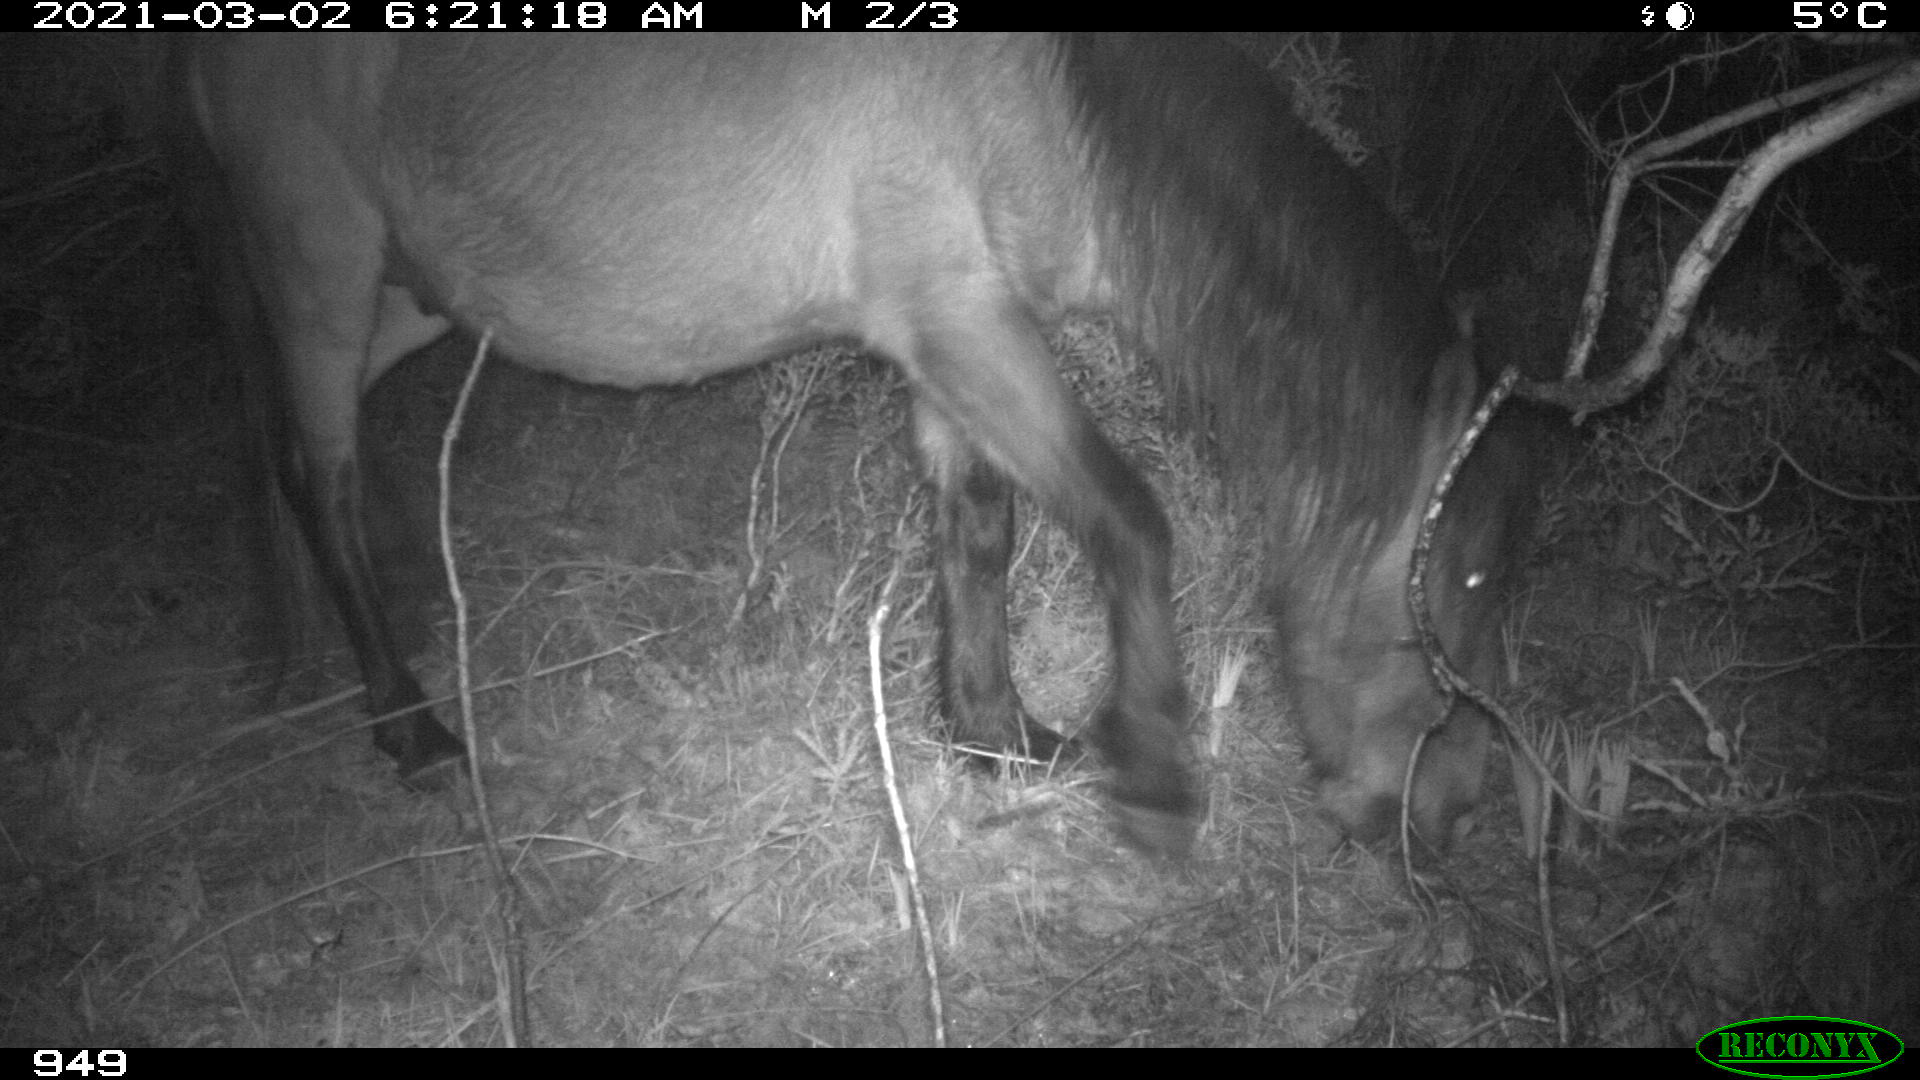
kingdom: Animalia
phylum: Chordata
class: Mammalia
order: Perissodactyla
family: Equidae
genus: Equus
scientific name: Equus caballus
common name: Horse
